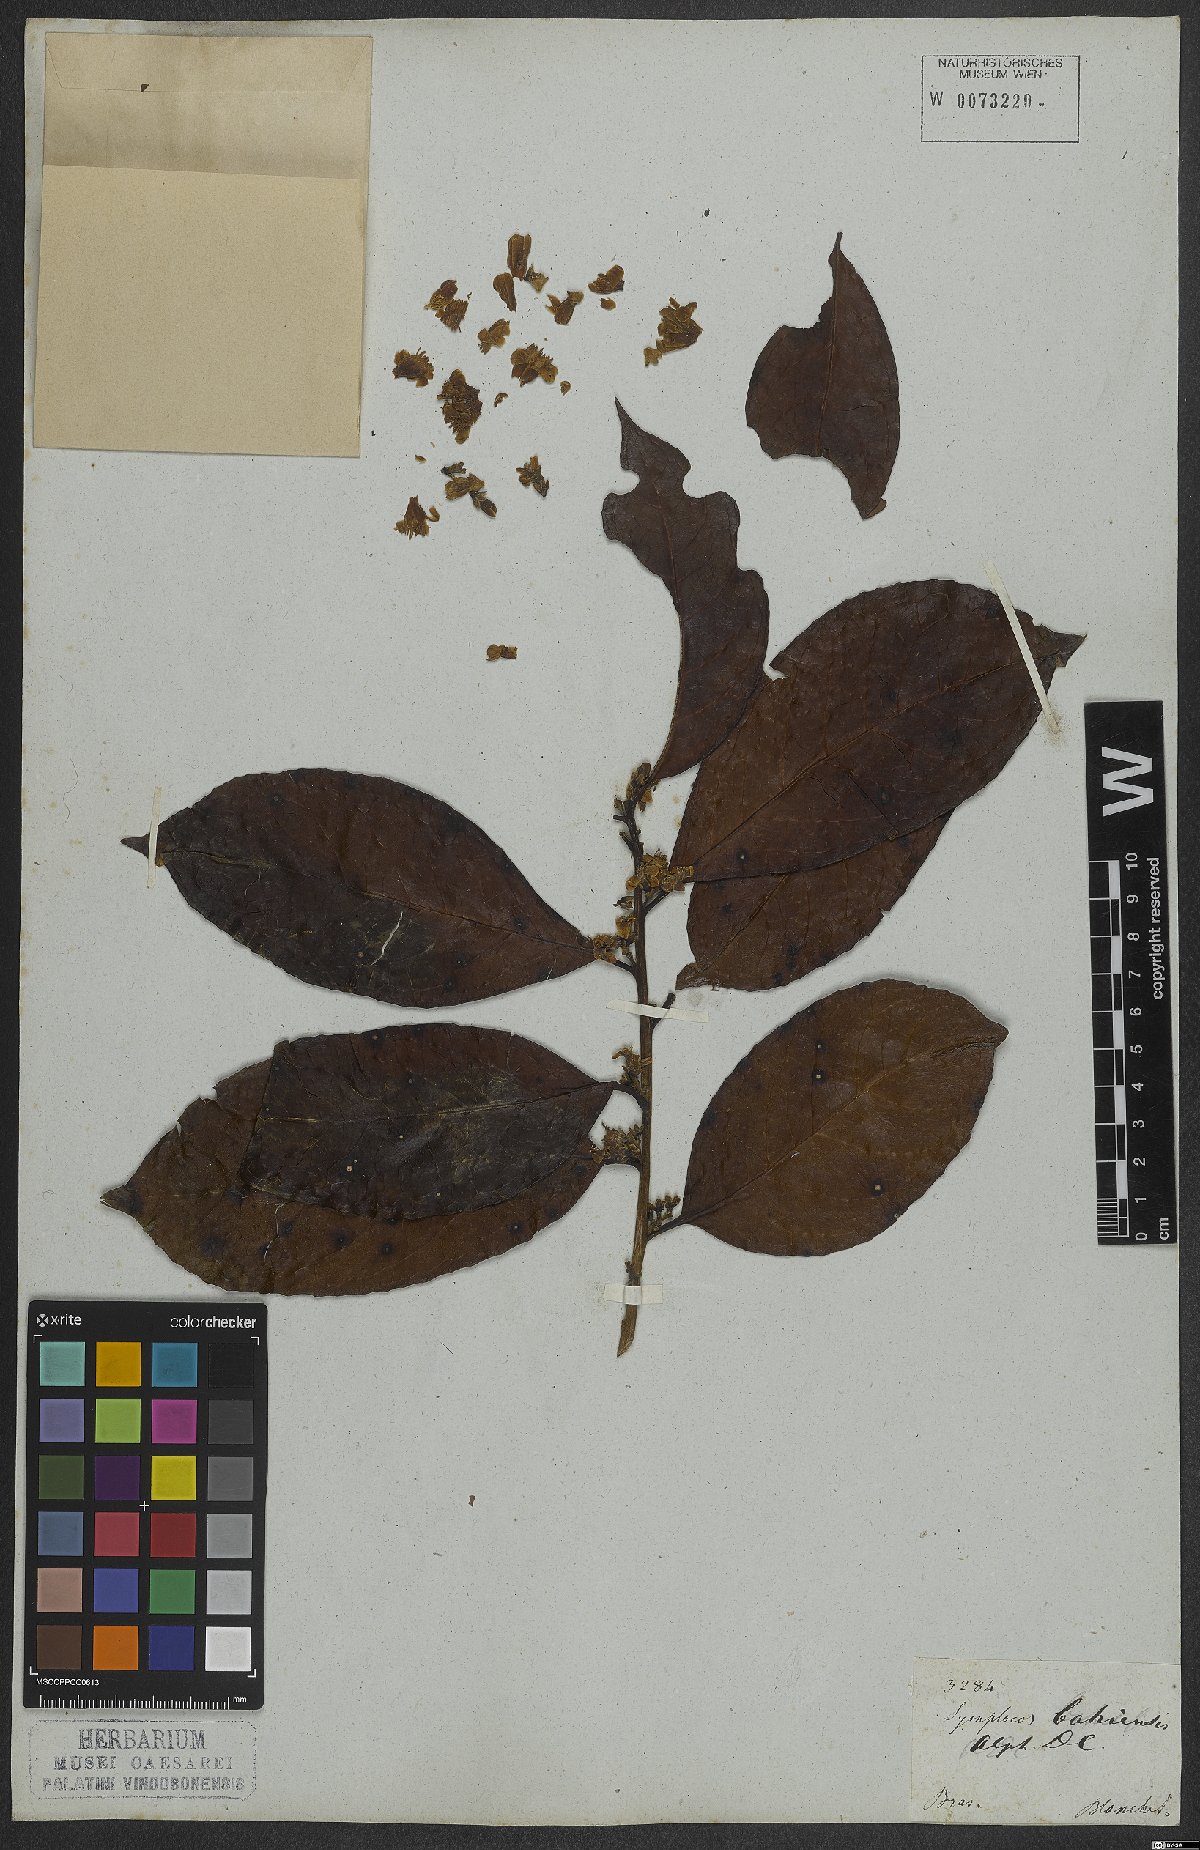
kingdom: Plantae
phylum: Tracheophyta
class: Magnoliopsida
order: Ericales
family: Symplocaceae
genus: Symplocos
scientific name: Symplocos nitens
